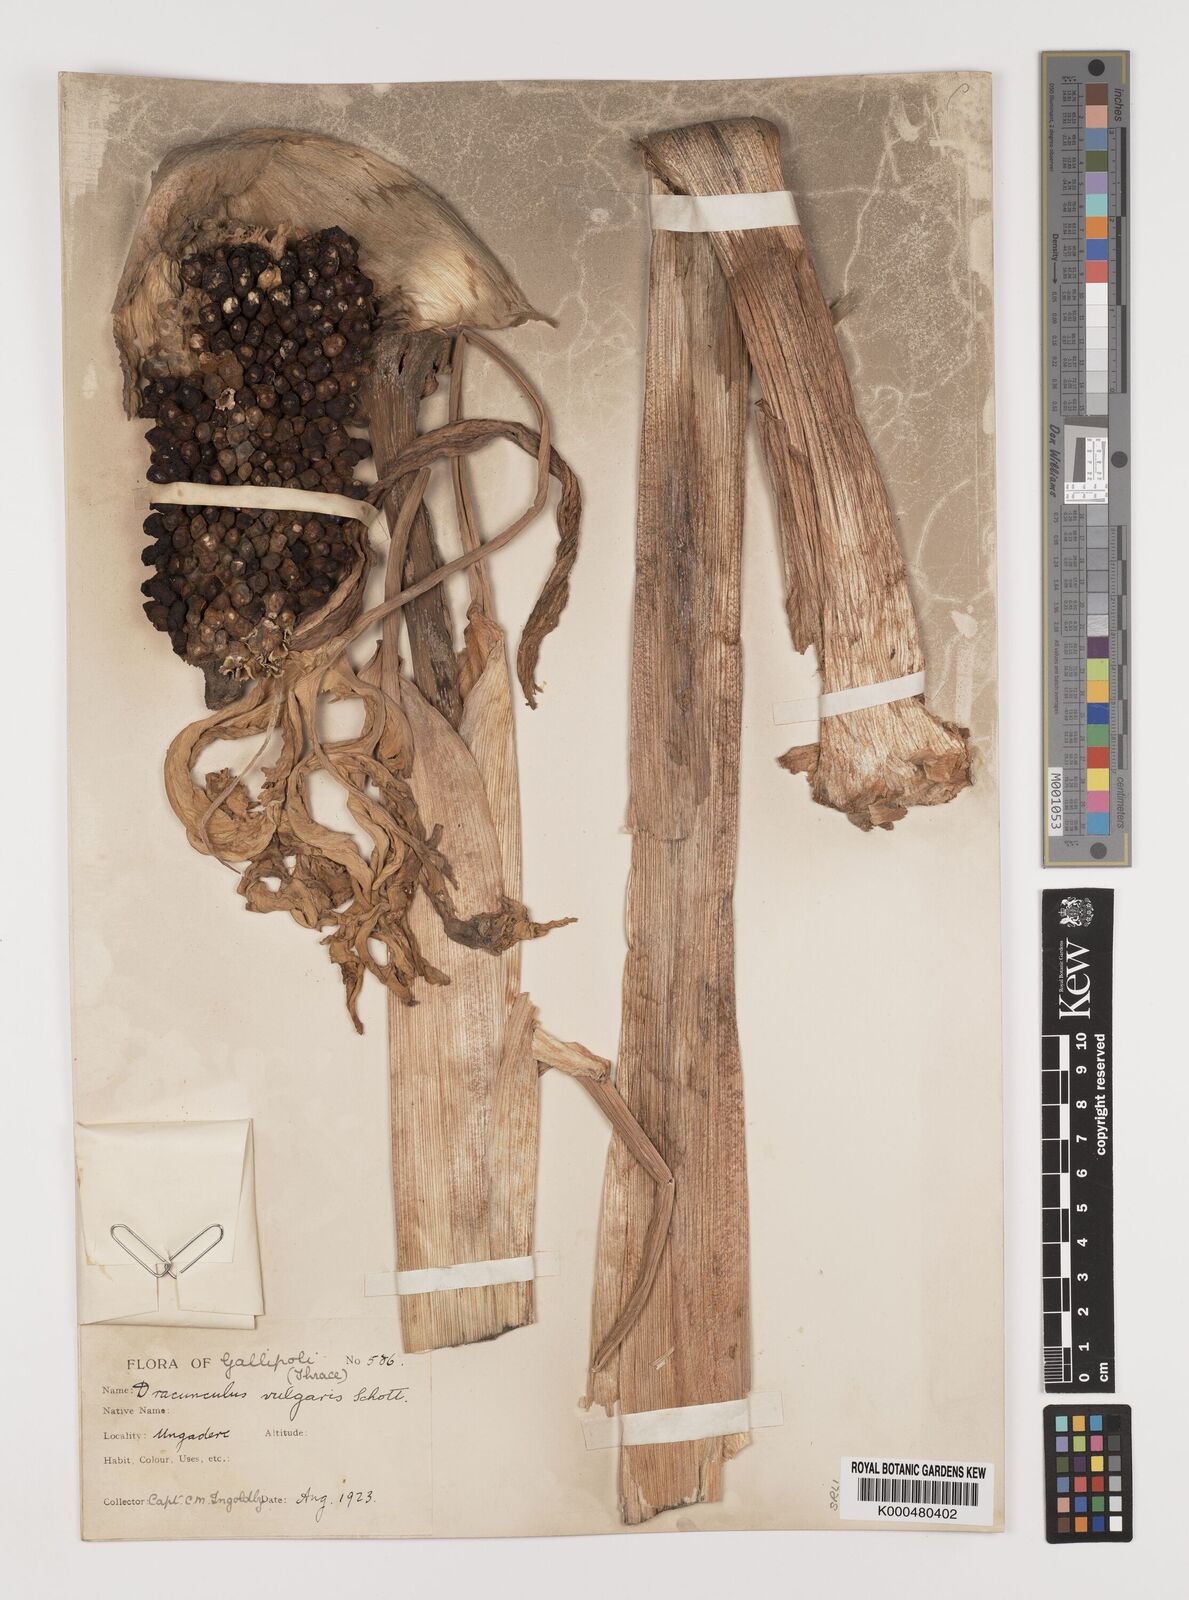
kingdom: Plantae
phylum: Tracheophyta
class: Liliopsida
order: Alismatales
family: Araceae
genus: Dracunculus
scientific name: Dracunculus vulgaris
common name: Dragon arum
